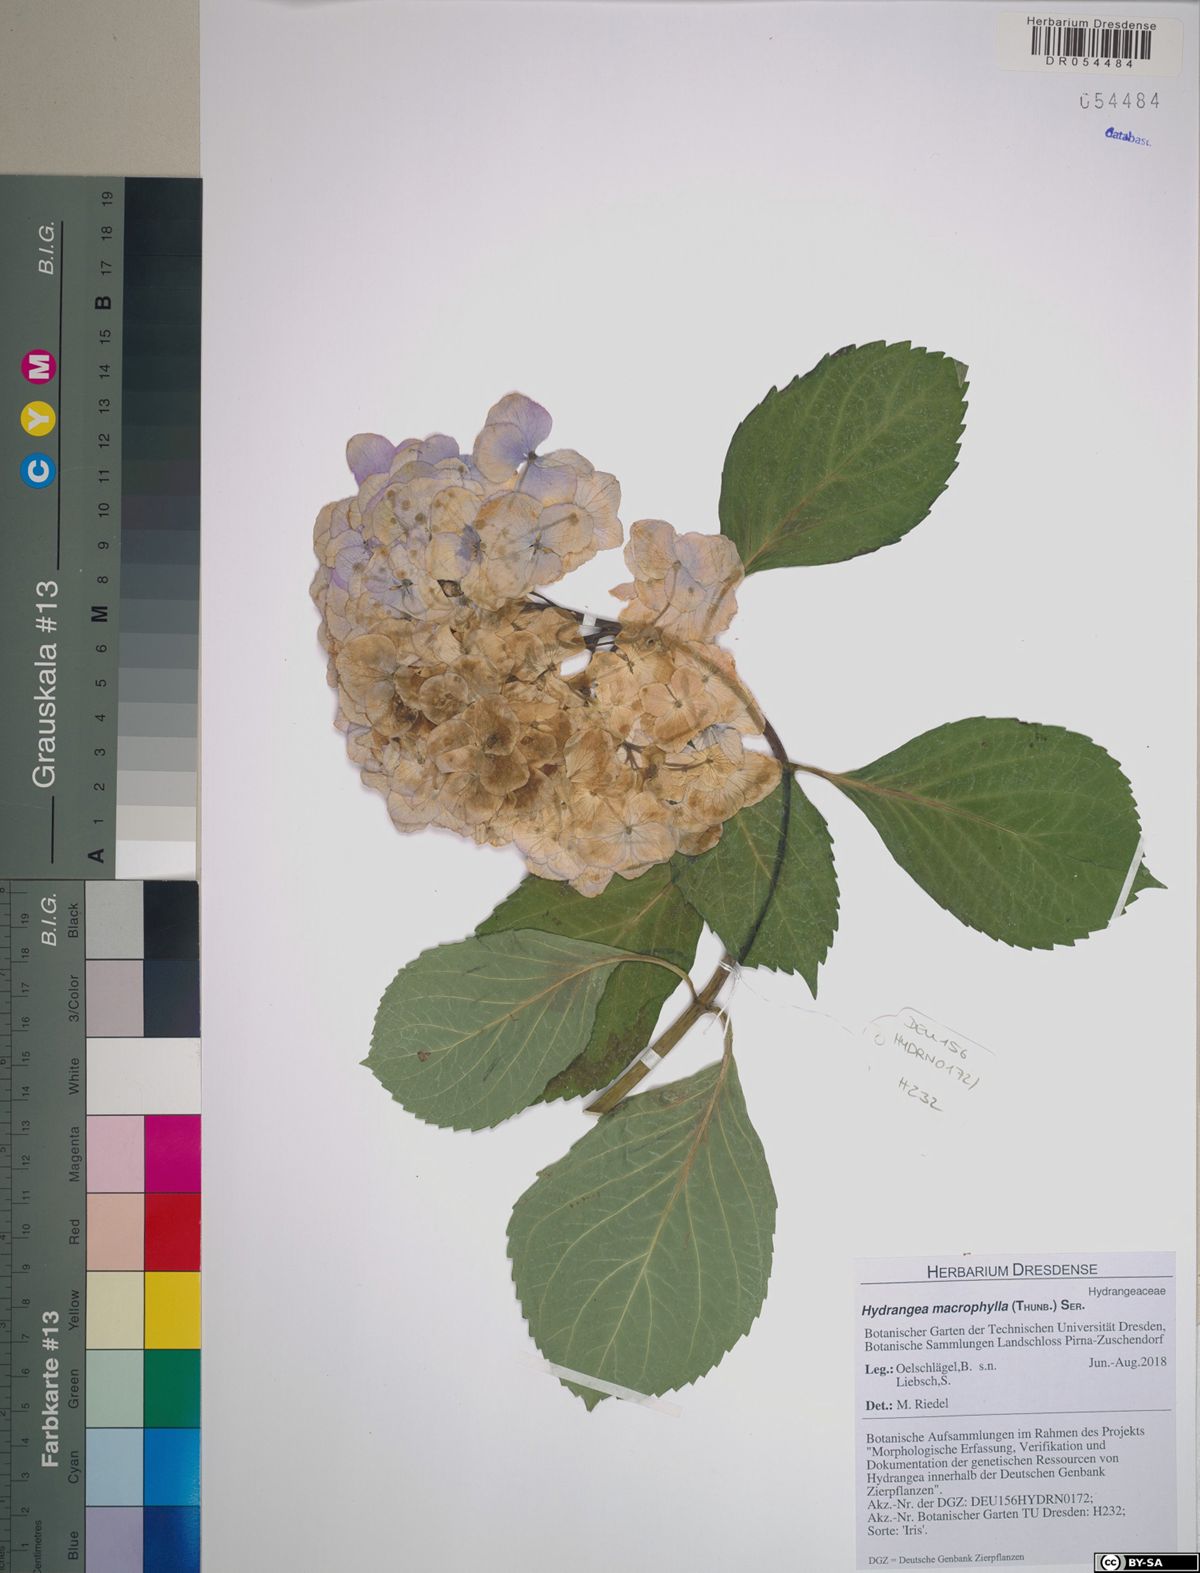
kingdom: Plantae
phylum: Tracheophyta
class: Magnoliopsida
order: Cornales
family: Hydrangeaceae
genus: Hydrangea
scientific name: Hydrangea macrophylla
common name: Hydrangea
